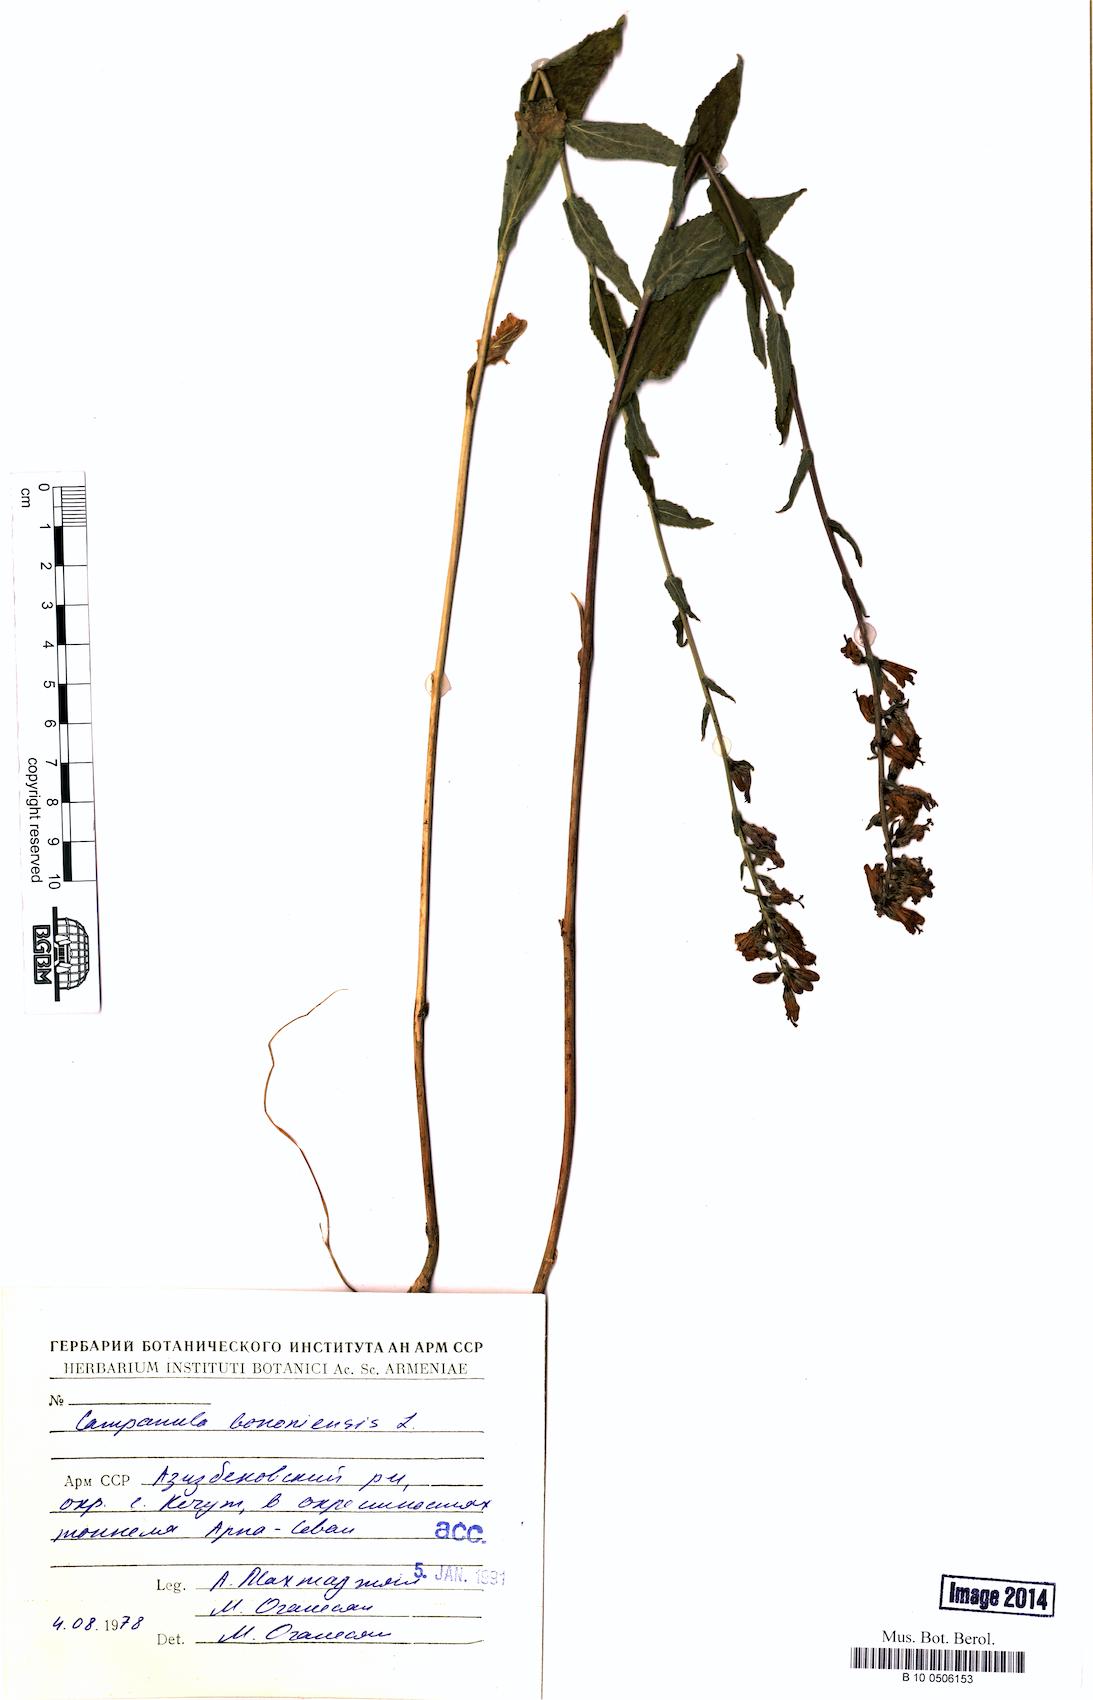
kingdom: Plantae
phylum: Tracheophyta
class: Magnoliopsida
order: Asterales
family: Campanulaceae
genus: Campanula
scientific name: Campanula bononiensis
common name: Pale bellflower
